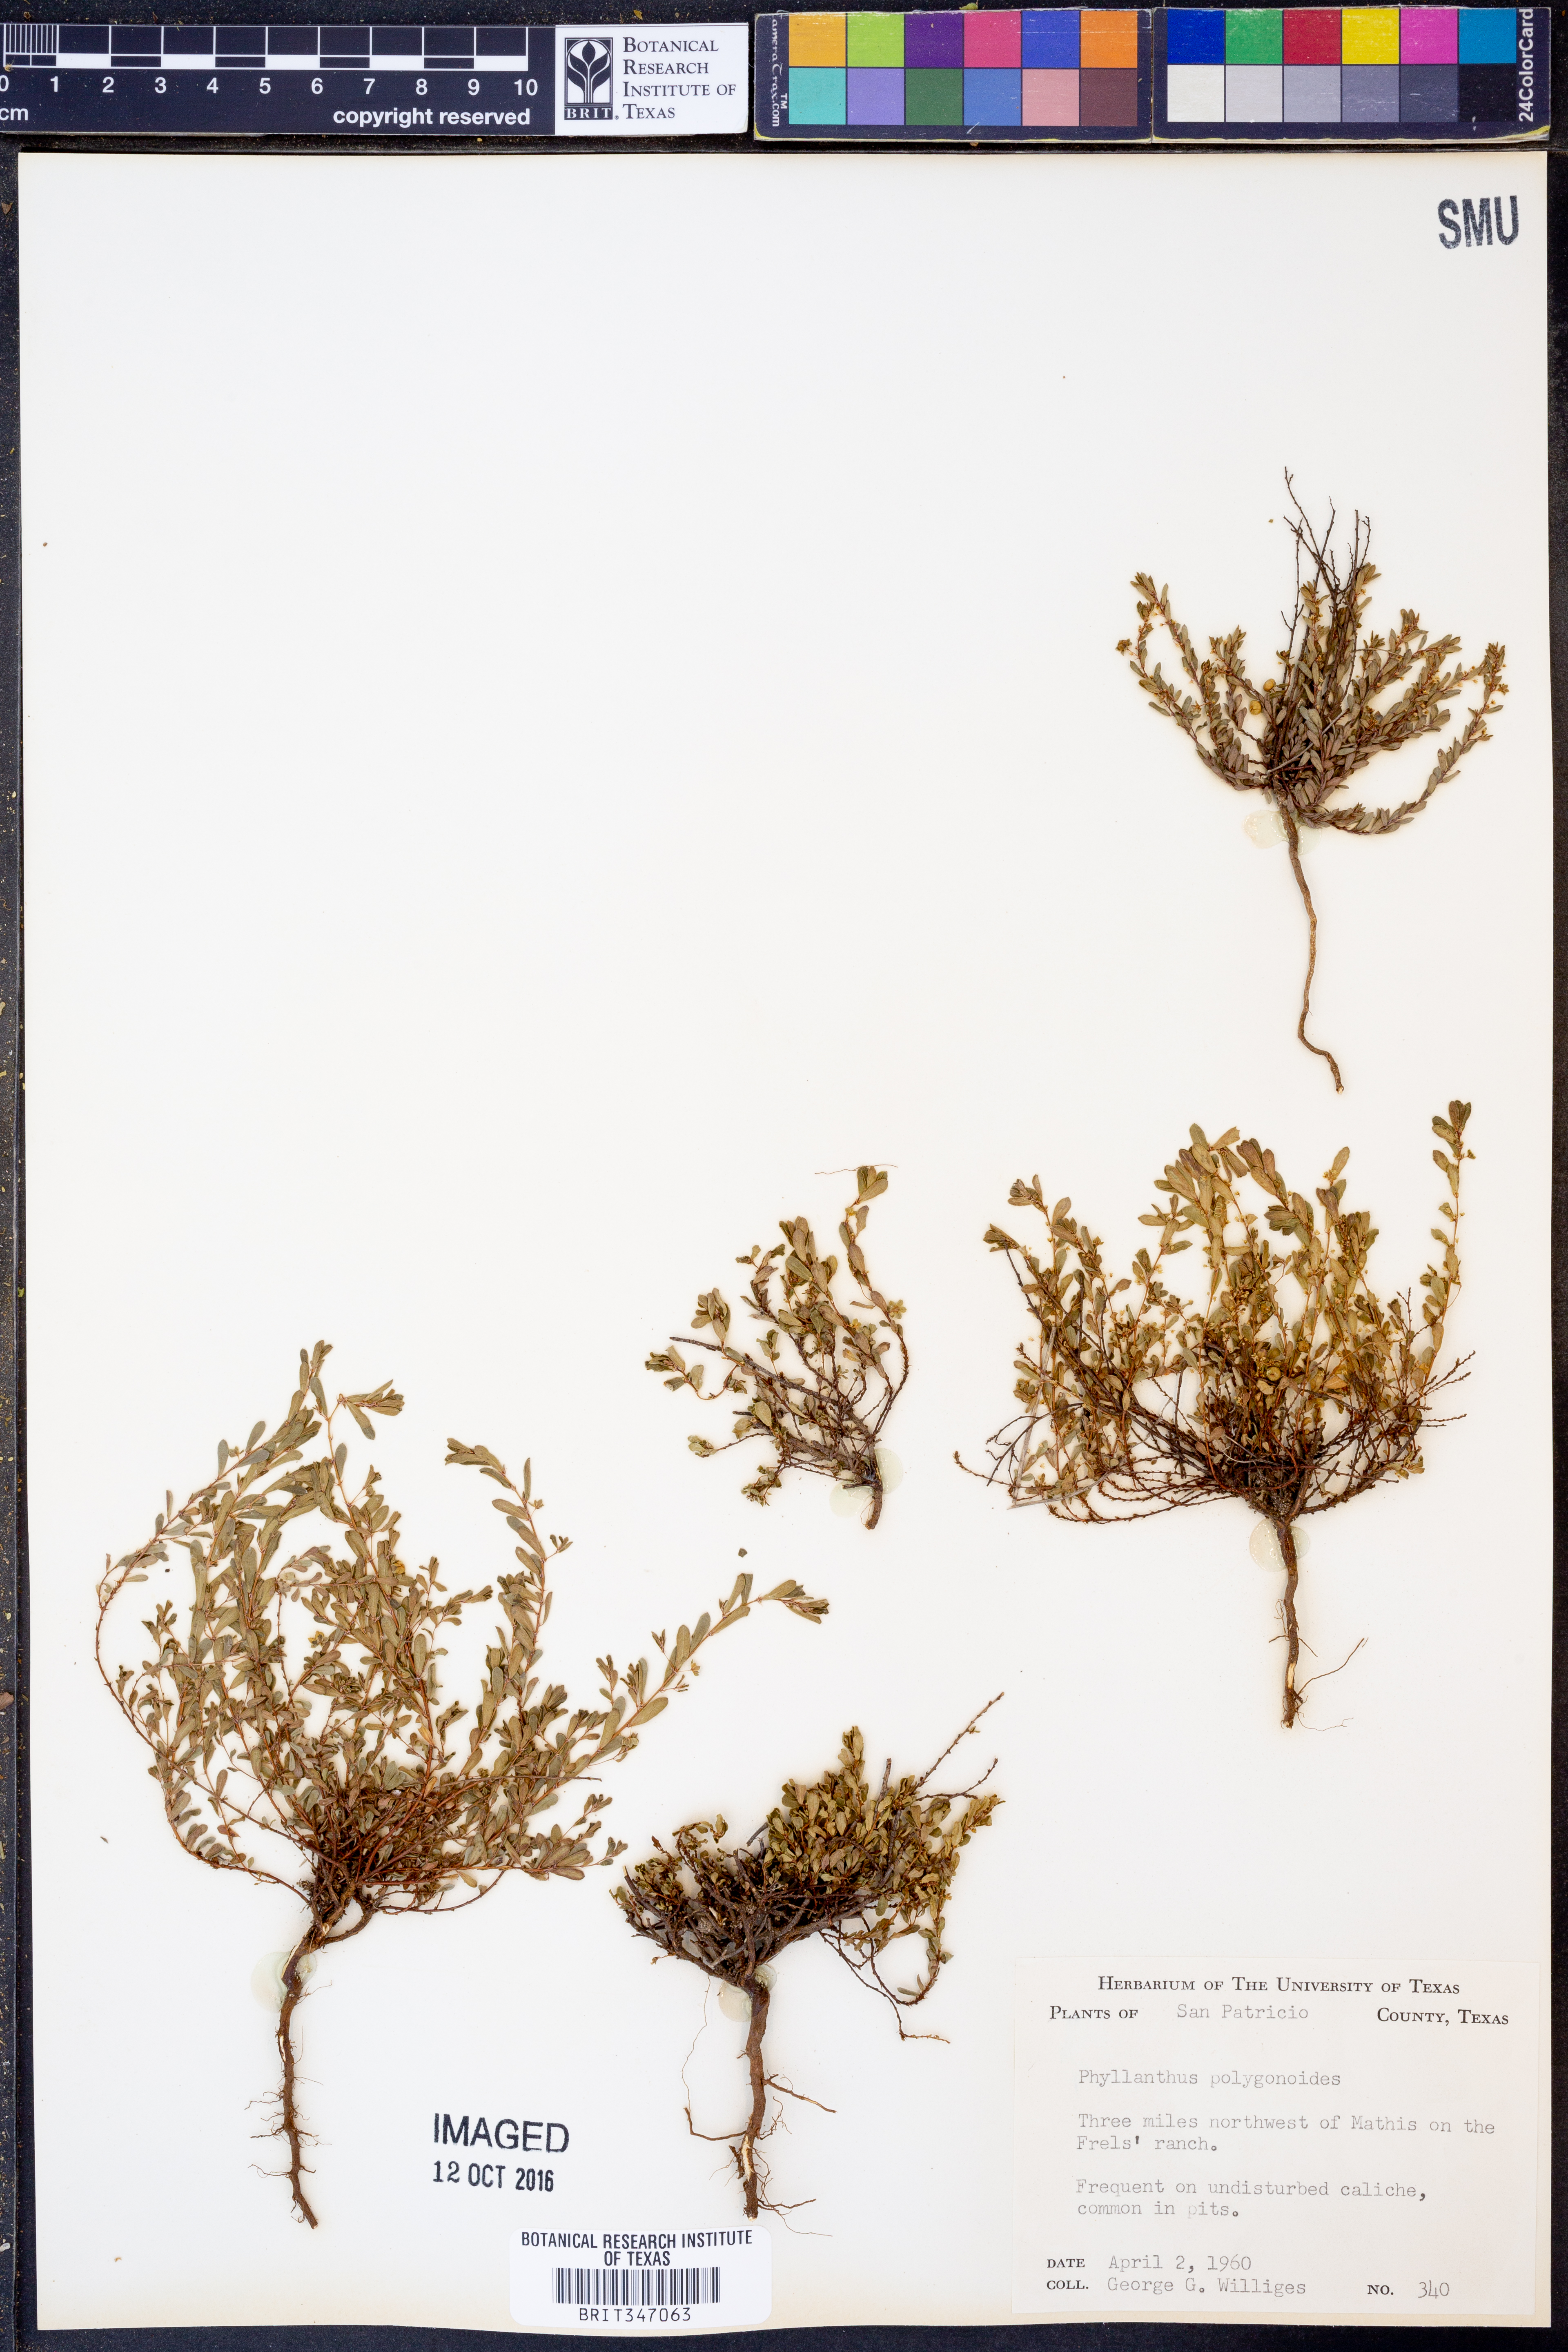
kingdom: Plantae
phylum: Tracheophyta
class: Magnoliopsida
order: Malpighiales
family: Phyllanthaceae
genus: Phyllanthus
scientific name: Phyllanthus polygonoides
